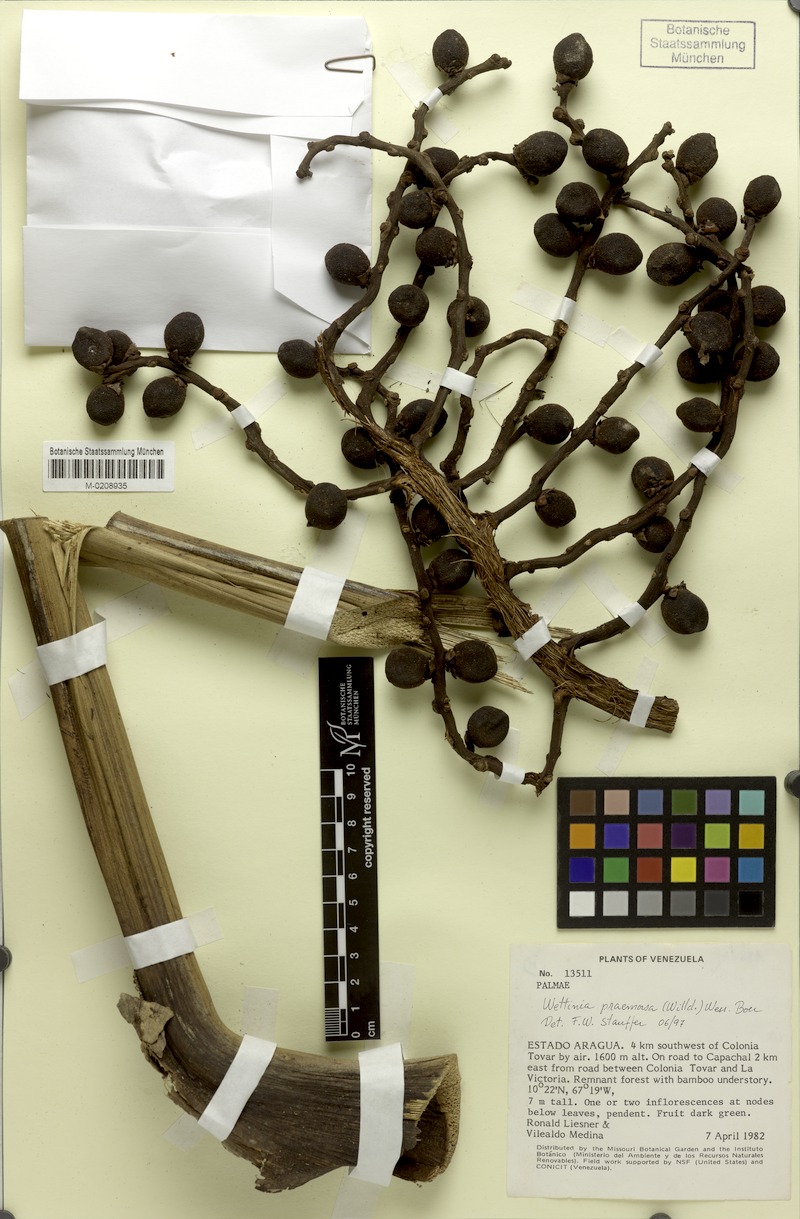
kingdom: Plantae
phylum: Tracheophyta
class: Liliopsida
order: Arecales
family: Arecaceae
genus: Wettinia
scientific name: Wettinia praemorsa
